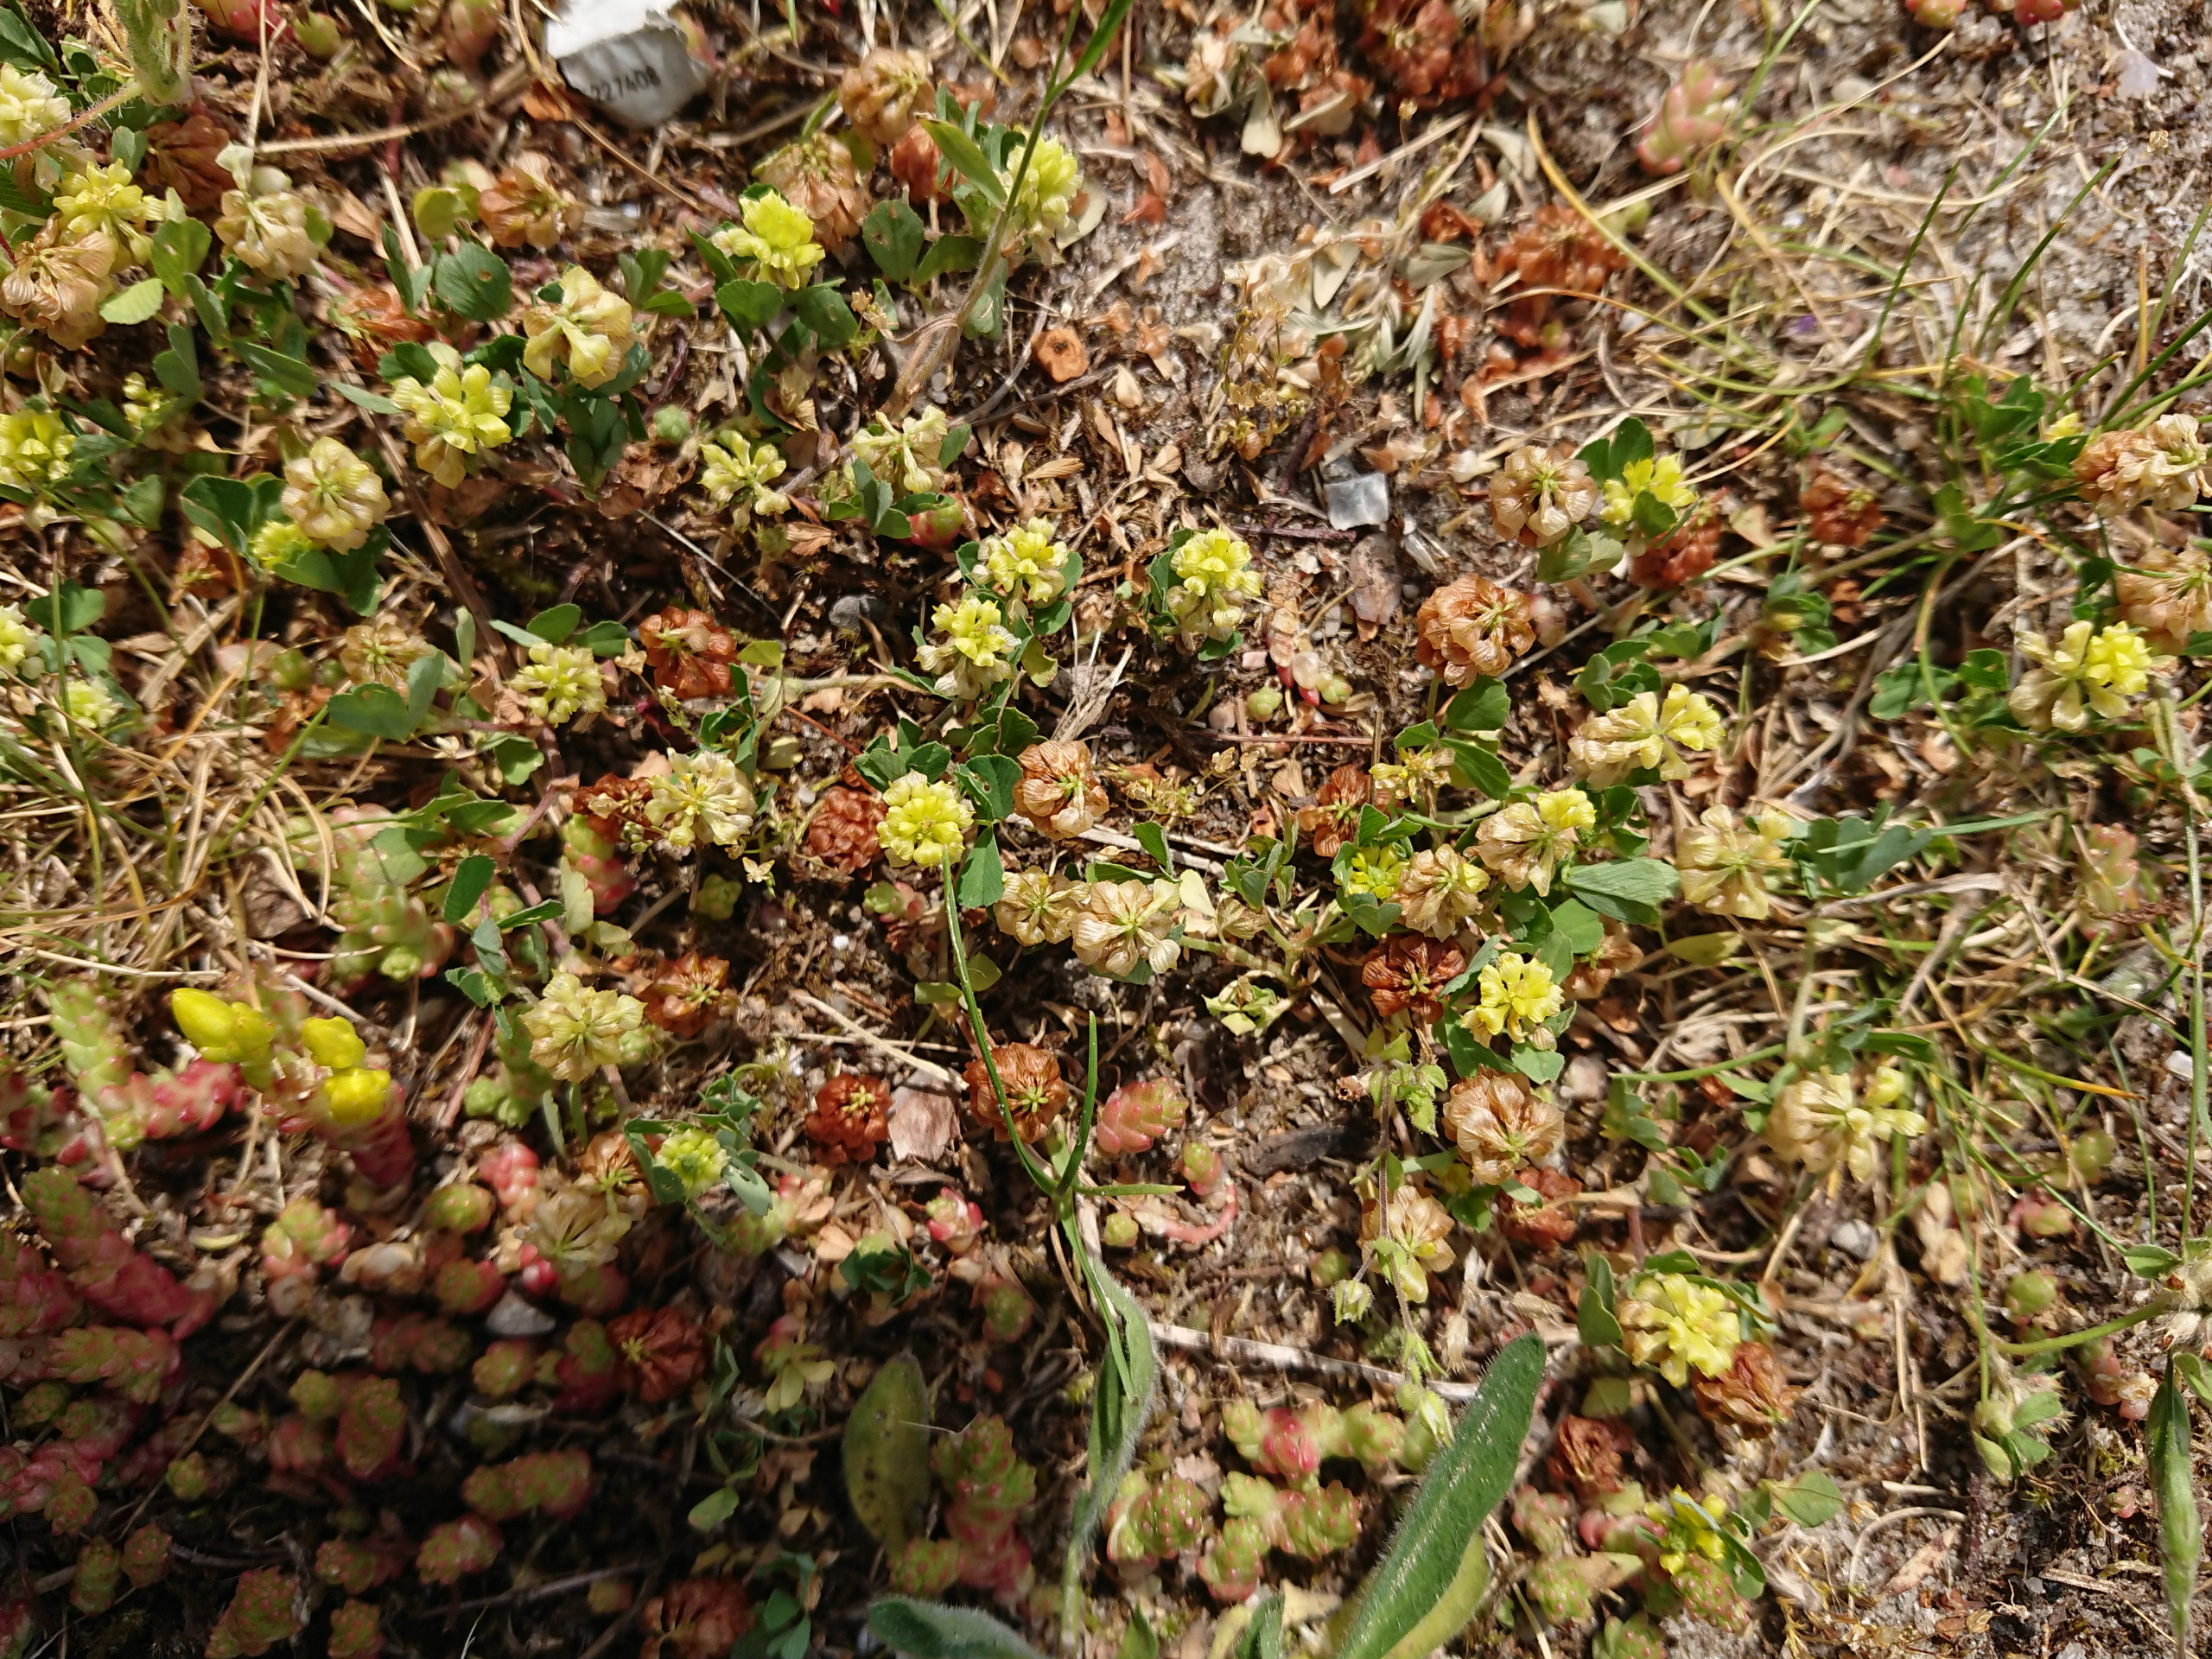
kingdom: Plantae
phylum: Tracheophyta
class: Magnoliopsida
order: Fabales
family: Fabaceae
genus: Trifolium
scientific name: Trifolium campestre
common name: Gul kløver
